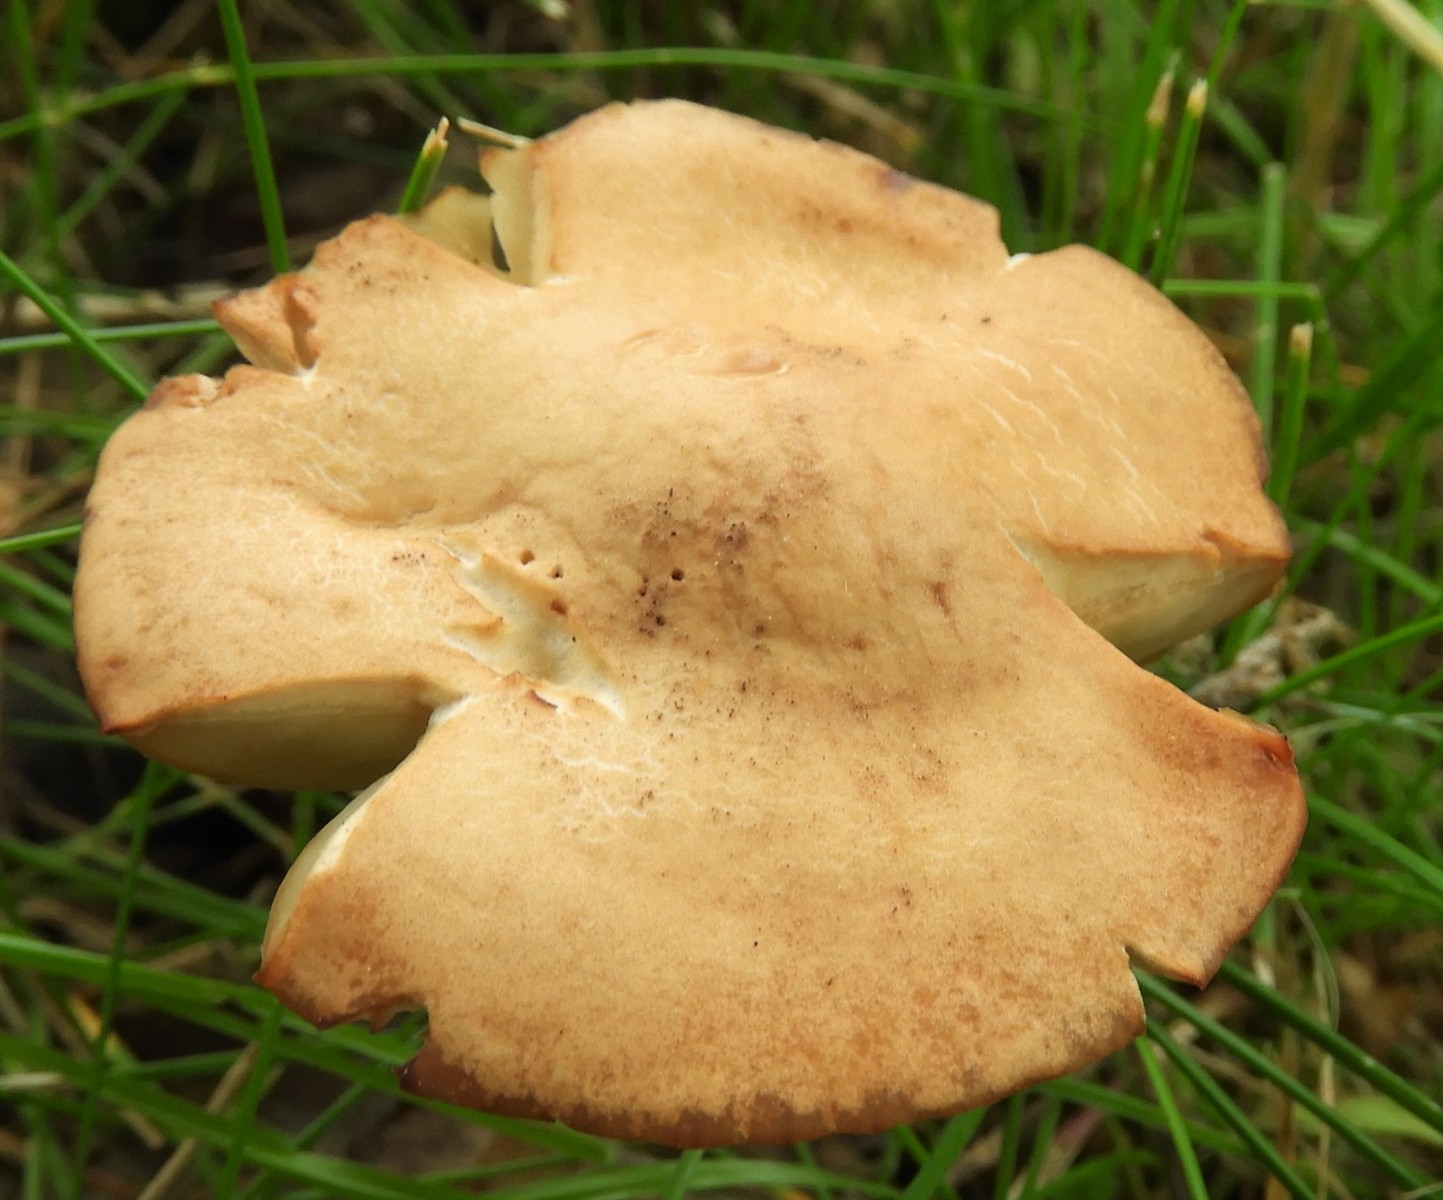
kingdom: Fungi
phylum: Basidiomycota
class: Agaricomycetes
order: Agaricales
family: Marasmiaceae
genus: Marasmius
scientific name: Marasmius oreades
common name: elledans-bruskhat
